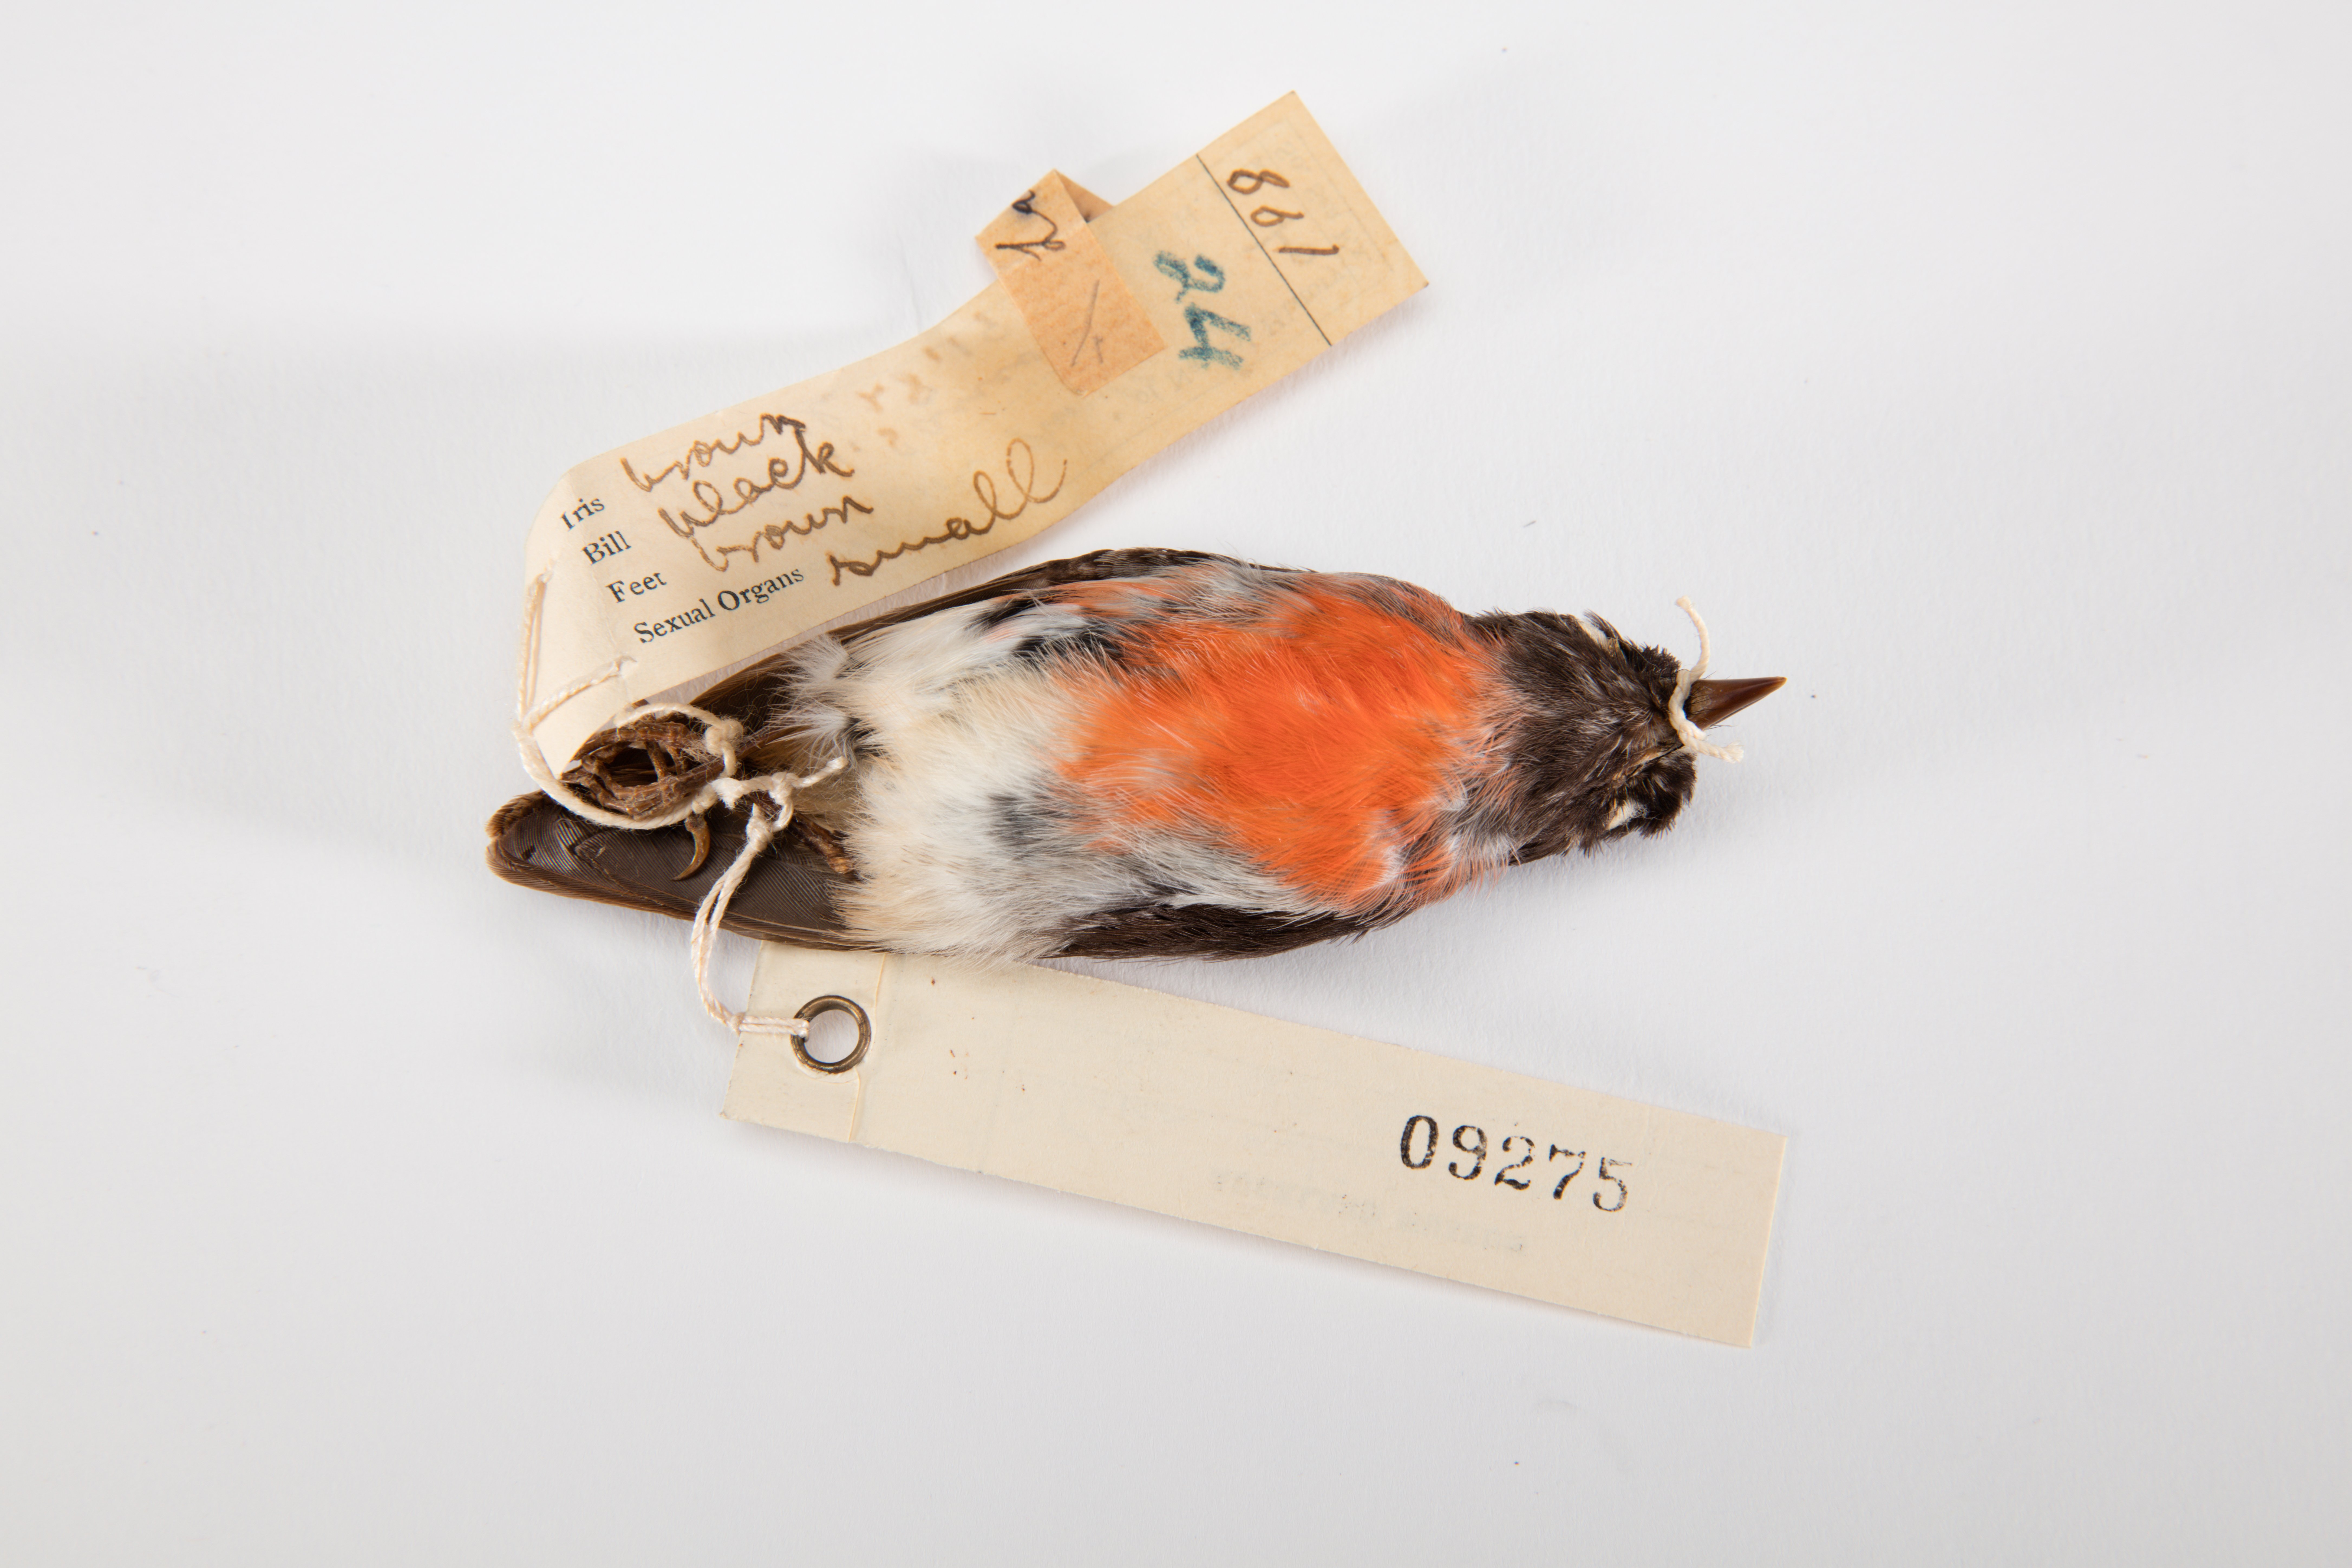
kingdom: Animalia
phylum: Chordata
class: Aves
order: Passeriformes
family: Petroicidae
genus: Petroica
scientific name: Petroica multicolor
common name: Pacific robin
